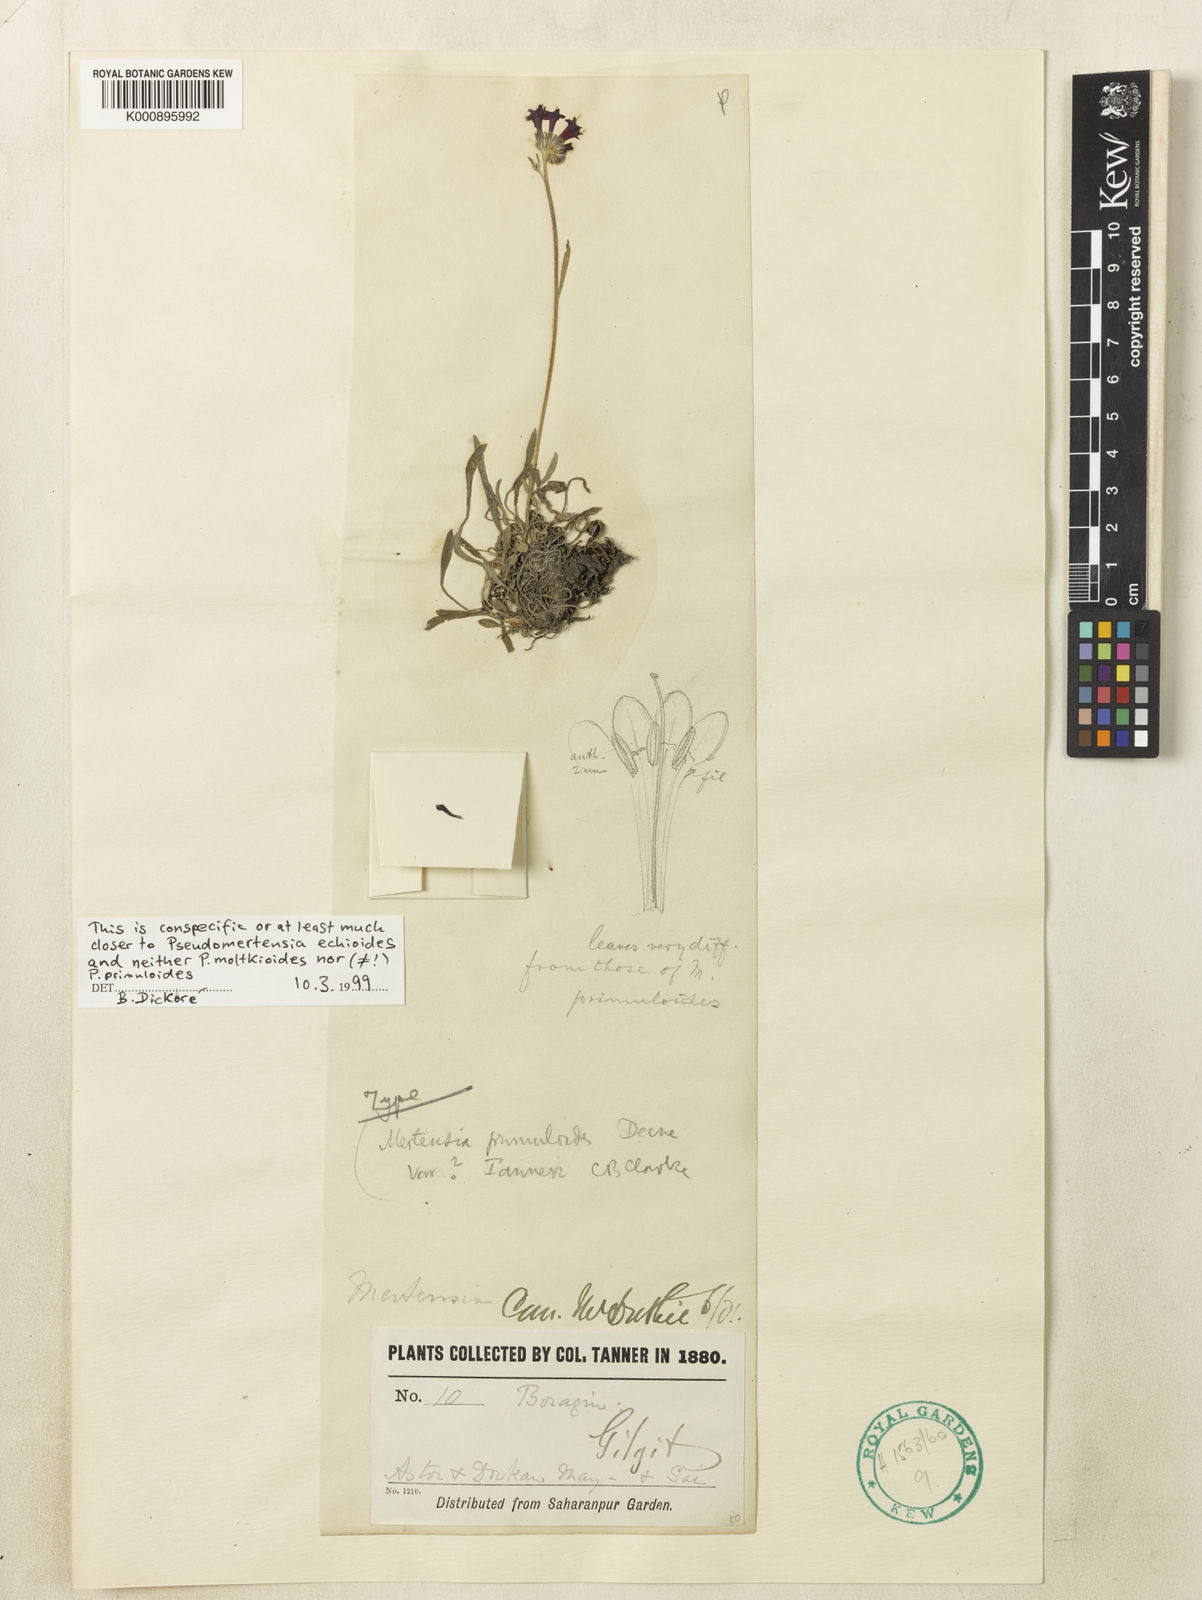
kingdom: Plantae
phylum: Tracheophyta
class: Magnoliopsida
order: Boraginales
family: Boraginaceae
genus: Decalepidanthus
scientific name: Decalepidanthus
